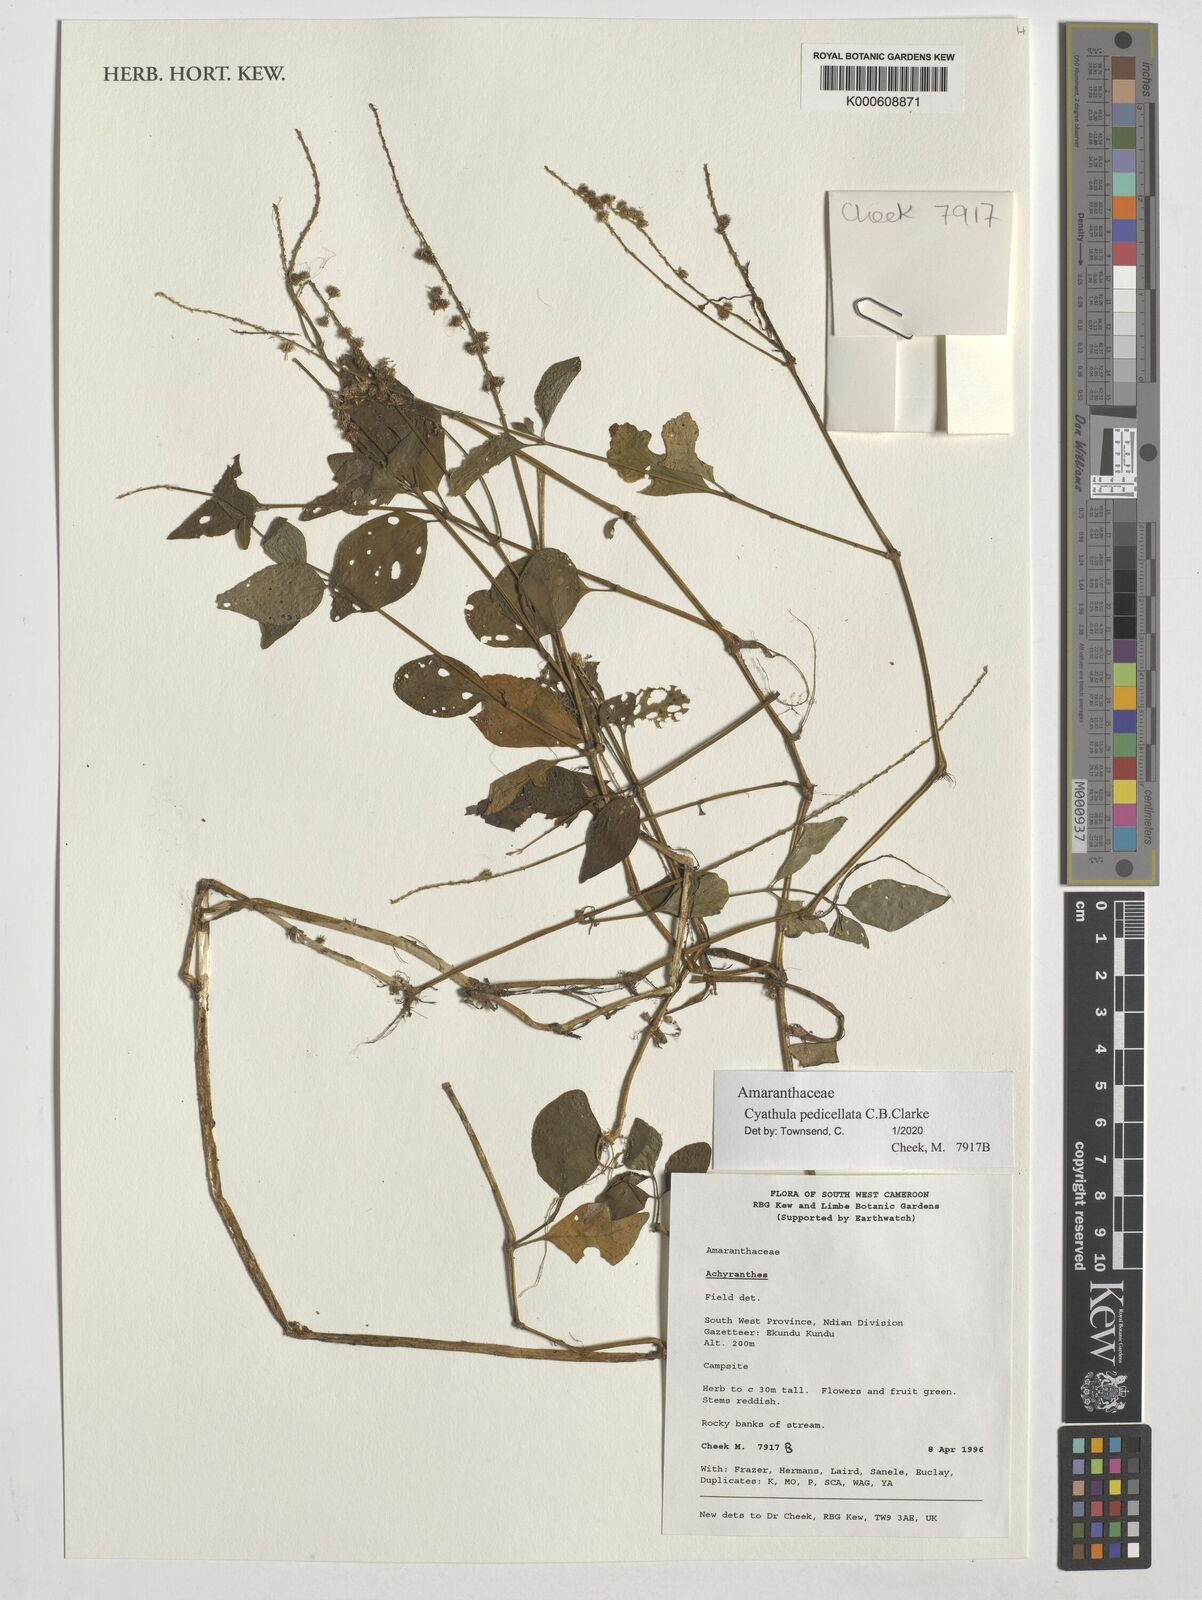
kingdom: Plantae
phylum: Tracheophyta
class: Magnoliopsida
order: Caryophyllales
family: Amaranthaceae
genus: Cyathula
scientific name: Cyathula prostrata
